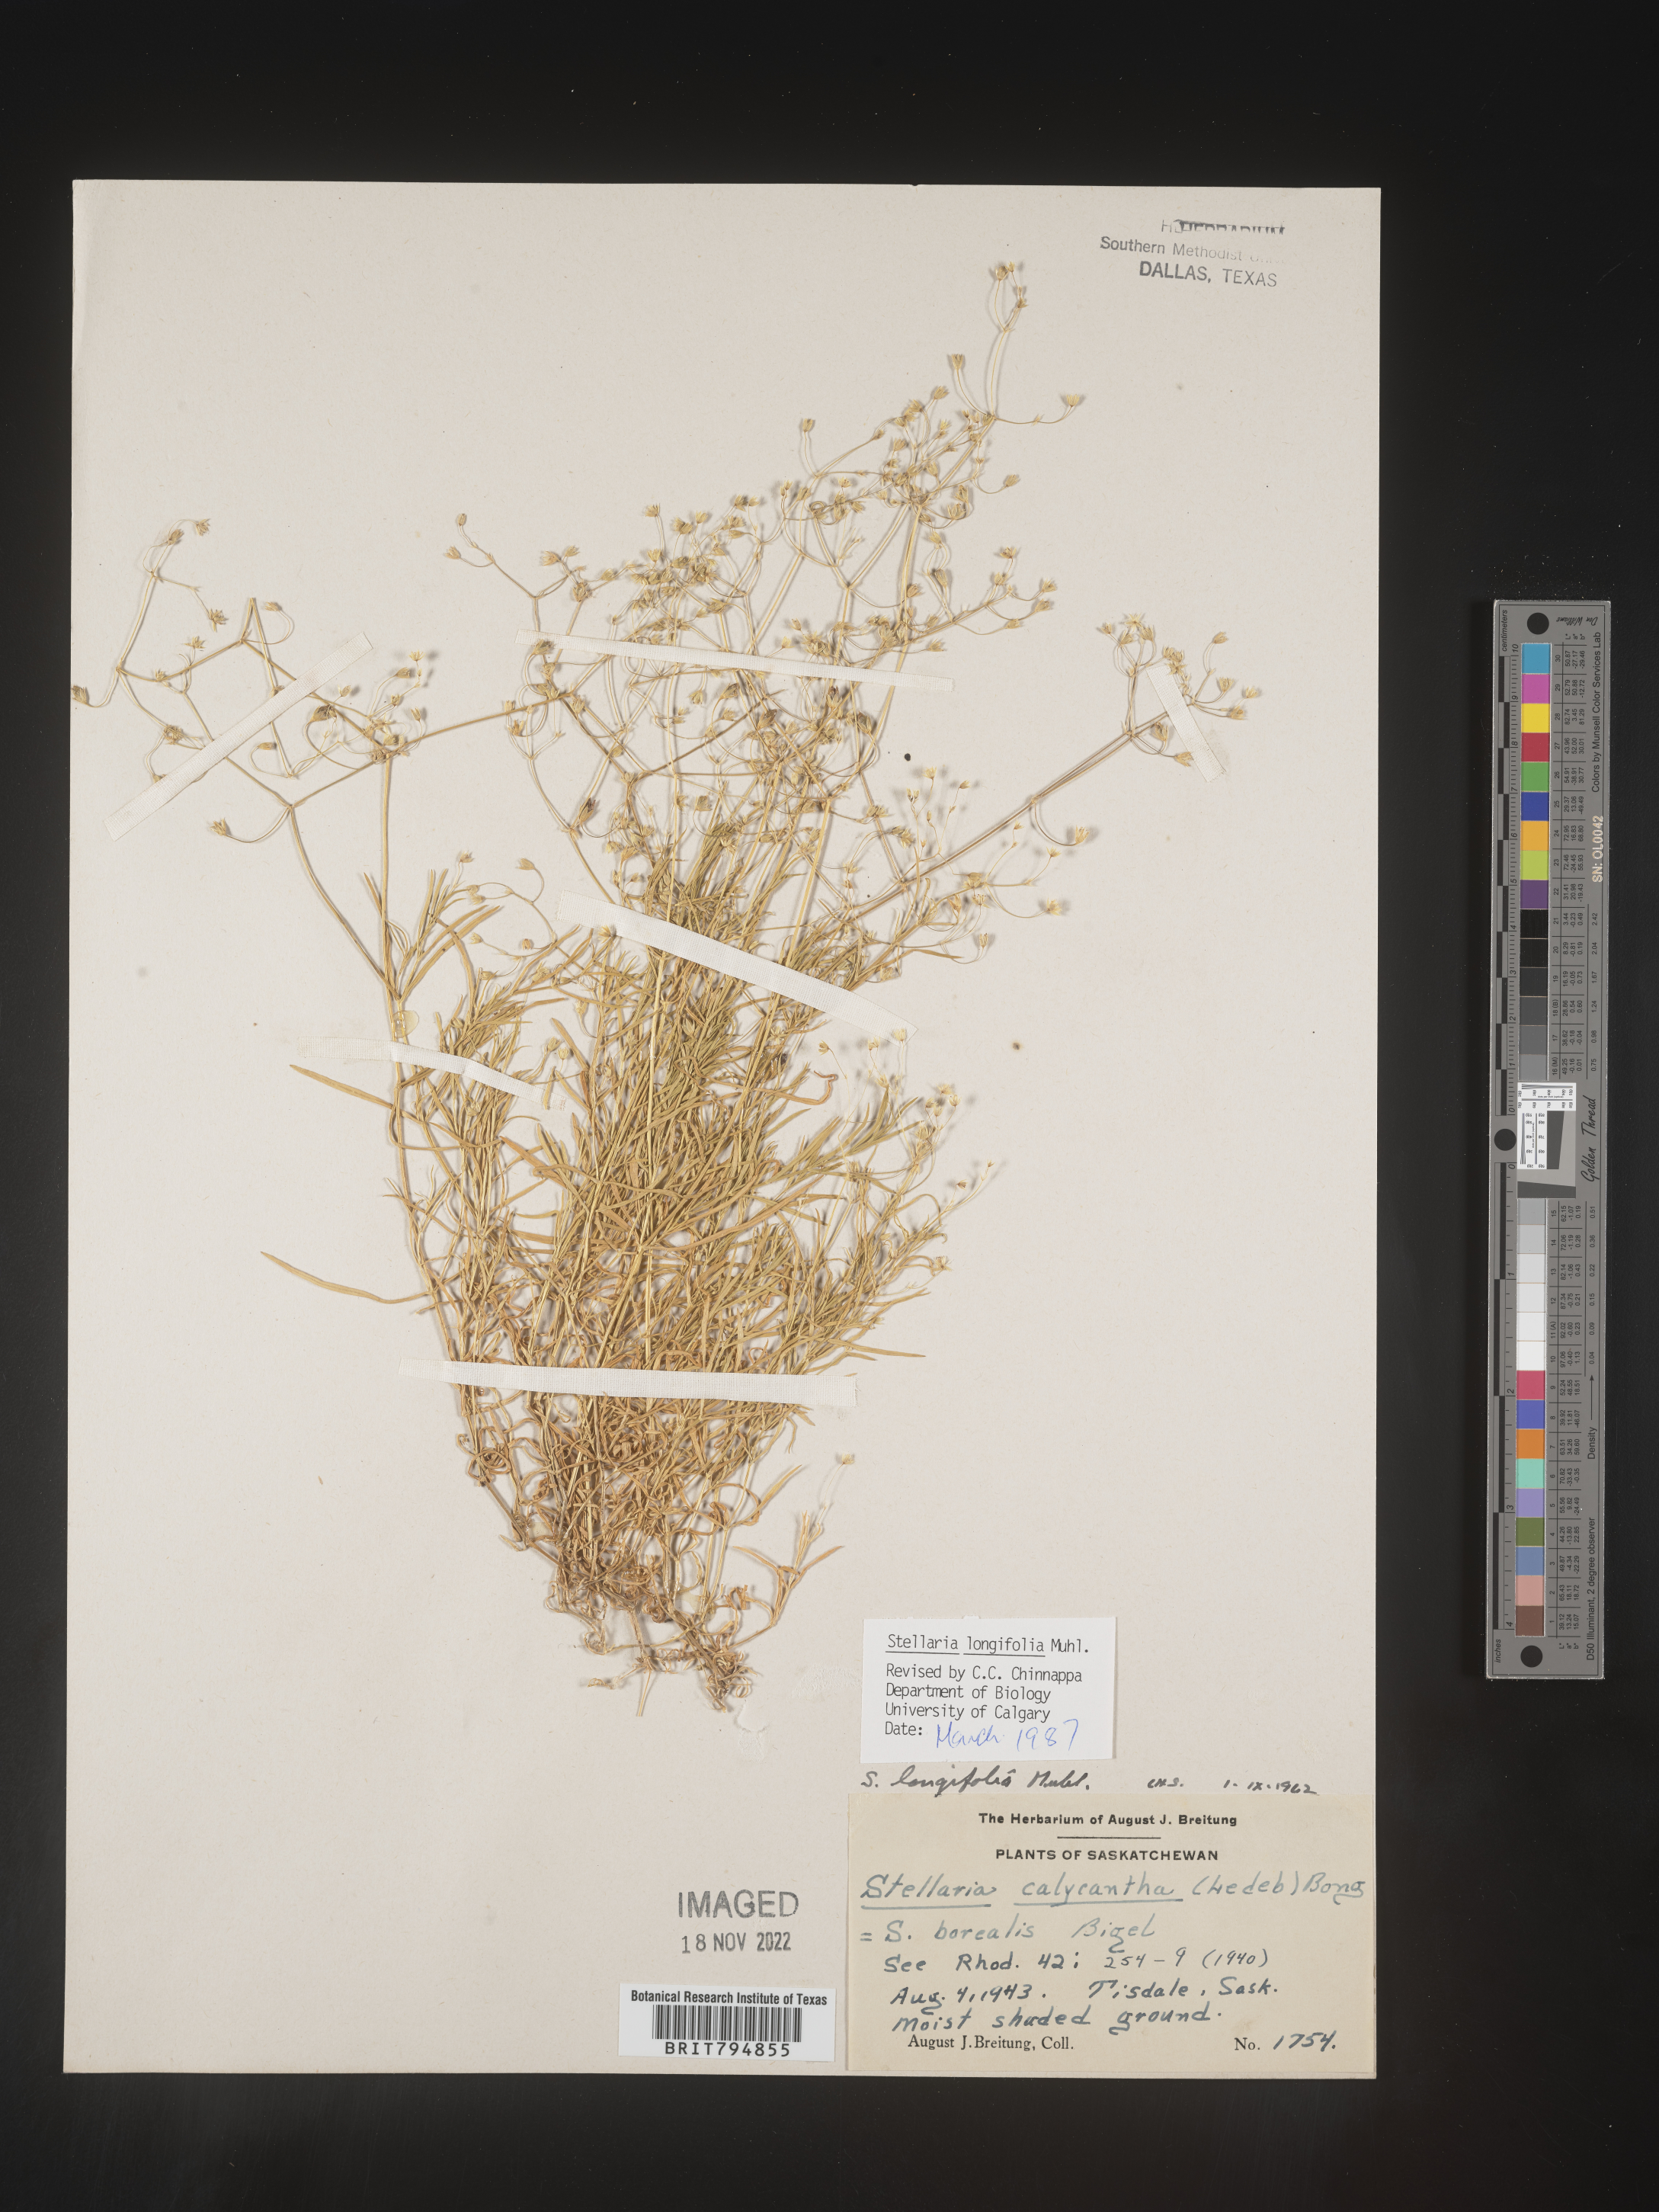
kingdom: Plantae
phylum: Tracheophyta
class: Magnoliopsida
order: Caryophyllales
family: Caryophyllaceae
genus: Stellaria
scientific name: Stellaria longifolia
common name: Long-leaved chickweed
